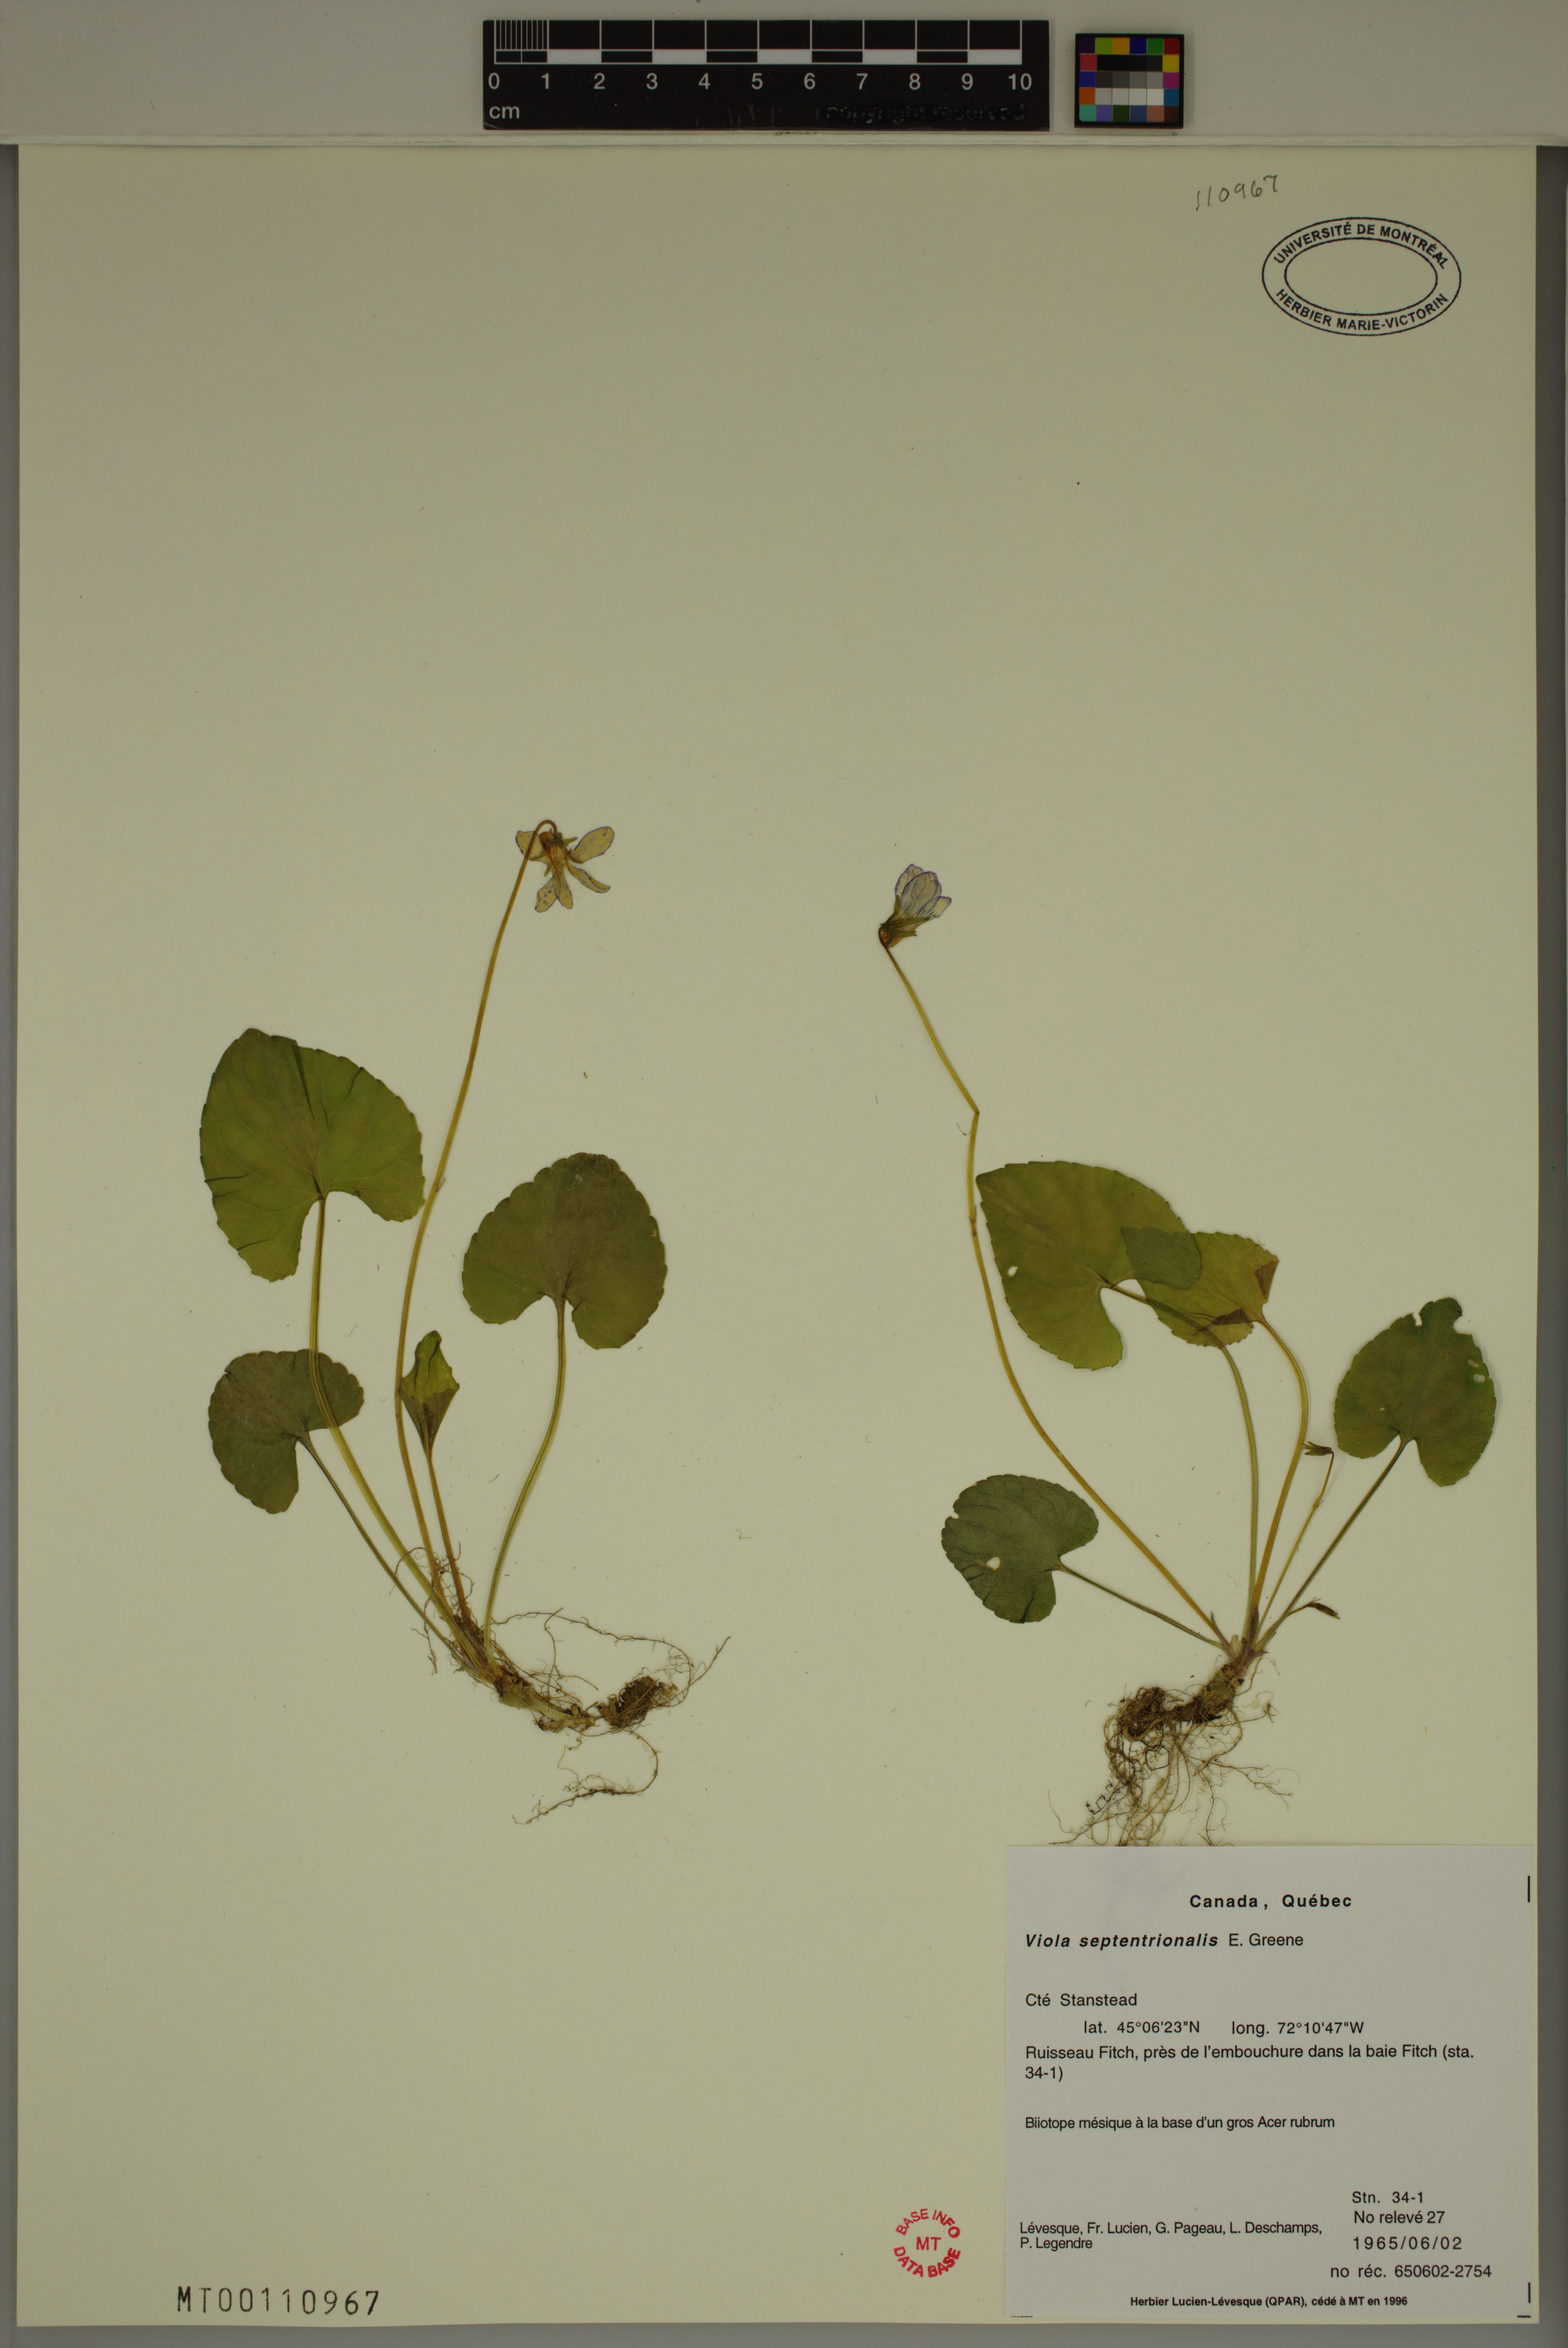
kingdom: Plantae
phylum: Tracheophyta
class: Magnoliopsida
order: Malpighiales
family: Violaceae
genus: Viola
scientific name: Viola sororia
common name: Dooryard violet
